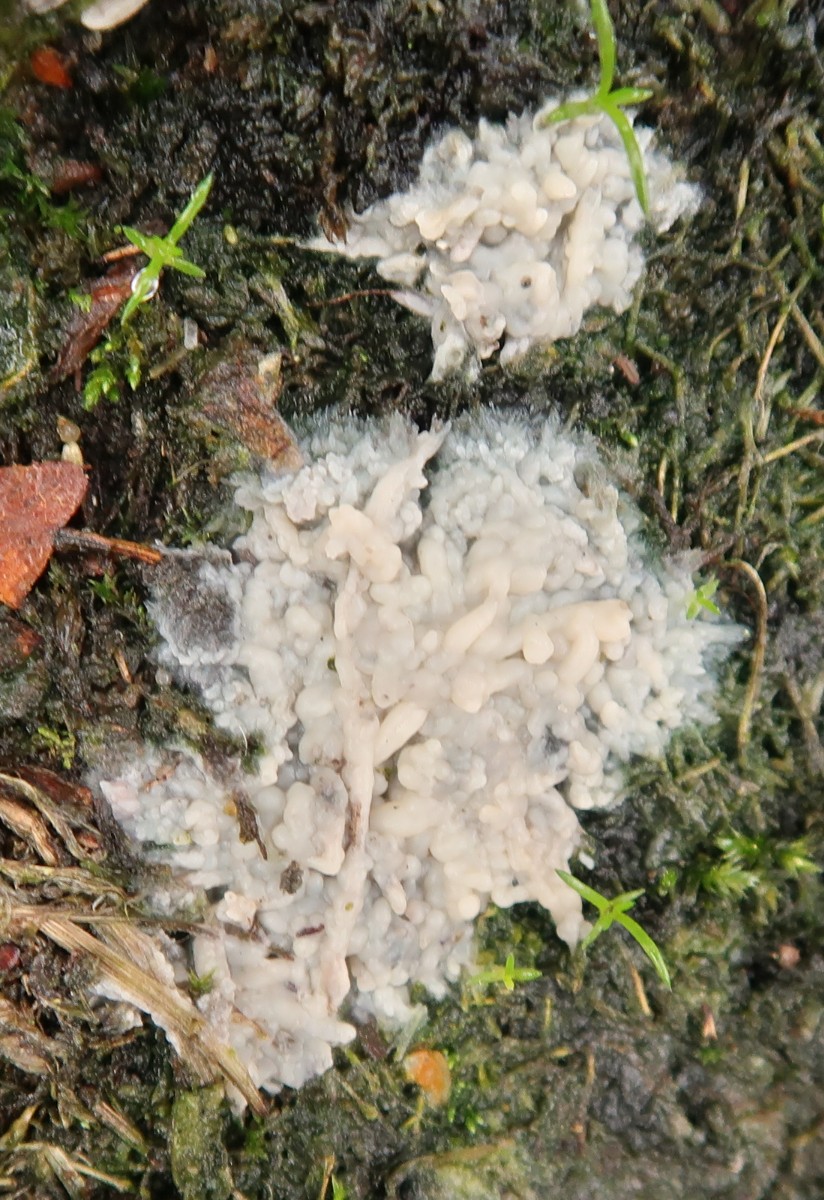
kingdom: Fungi
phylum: Basidiomycota
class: Agaricomycetes
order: Sebacinales
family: Sebacinaceae
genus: Sebacina
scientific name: Sebacina
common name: bævretalg
